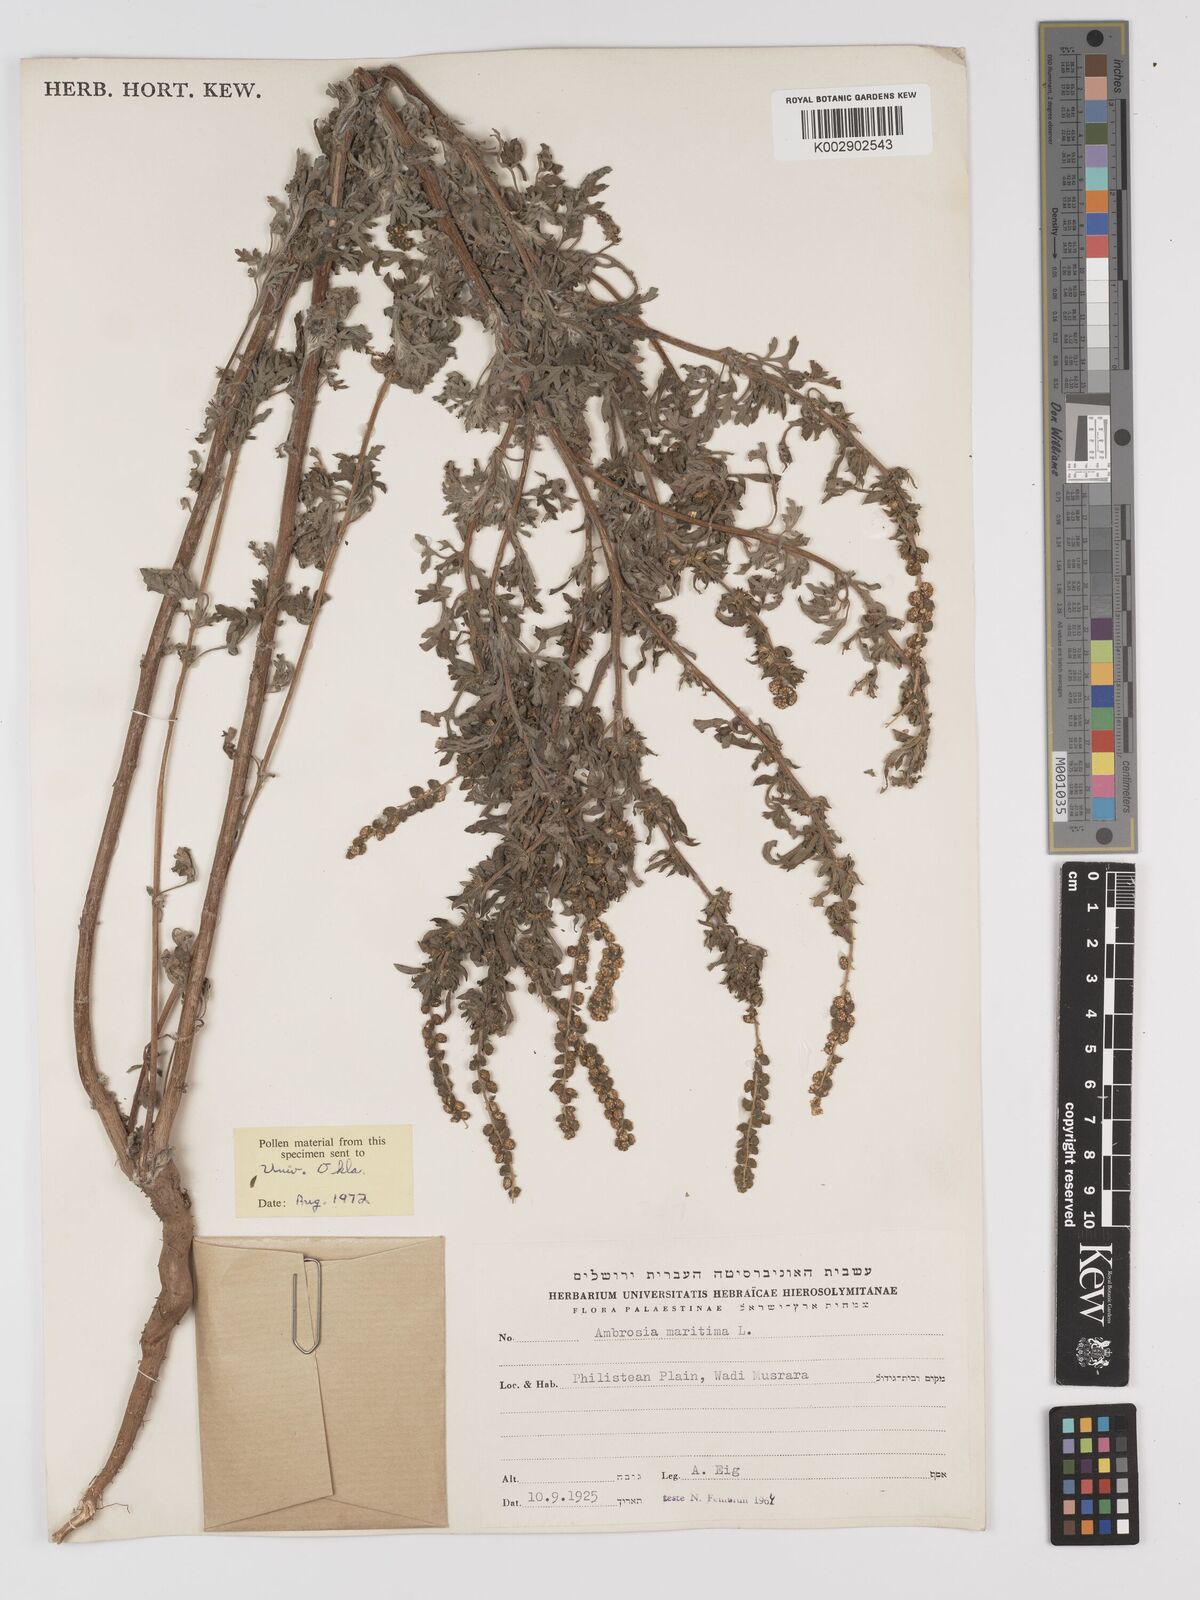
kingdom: Plantae
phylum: Tracheophyta
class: Magnoliopsida
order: Asterales
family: Asteraceae
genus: Ambrosia
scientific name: Ambrosia maritima
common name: Sea ambrosia
